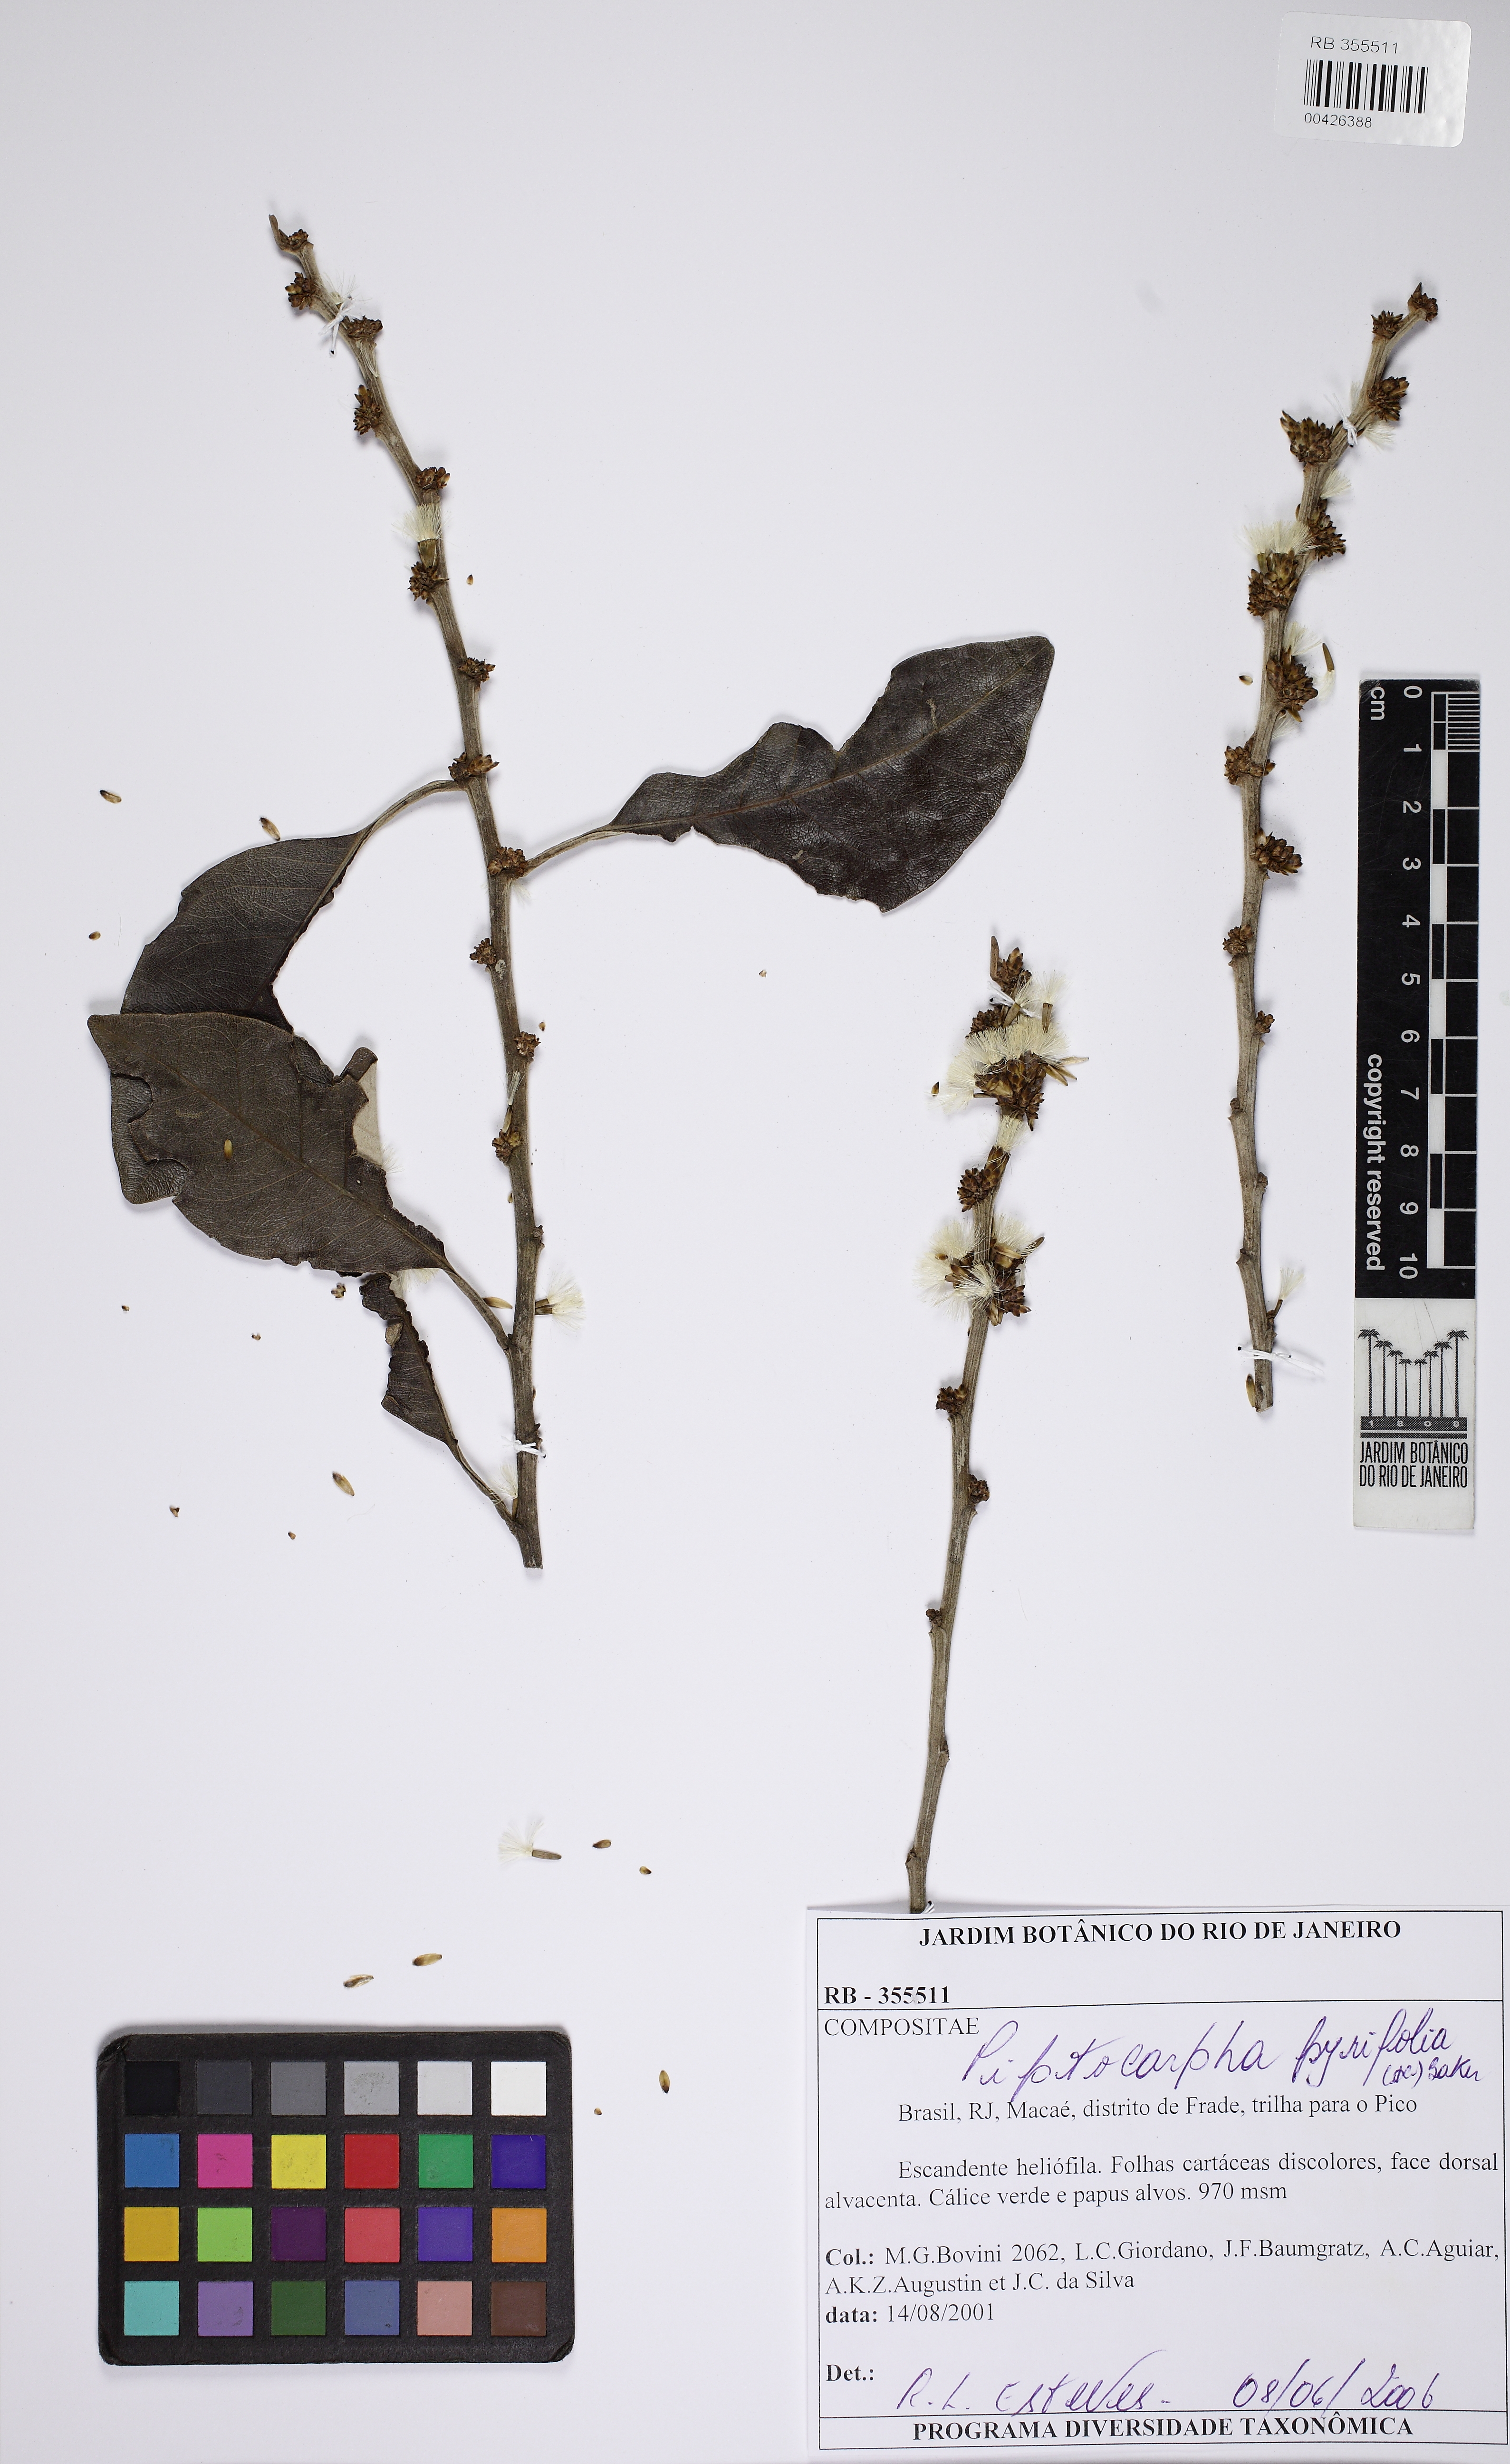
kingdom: Plantae
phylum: Tracheophyta
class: Magnoliopsida
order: Asterales
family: Asteraceae
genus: Piptocarpha
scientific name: Piptocarpha pyrifolia
